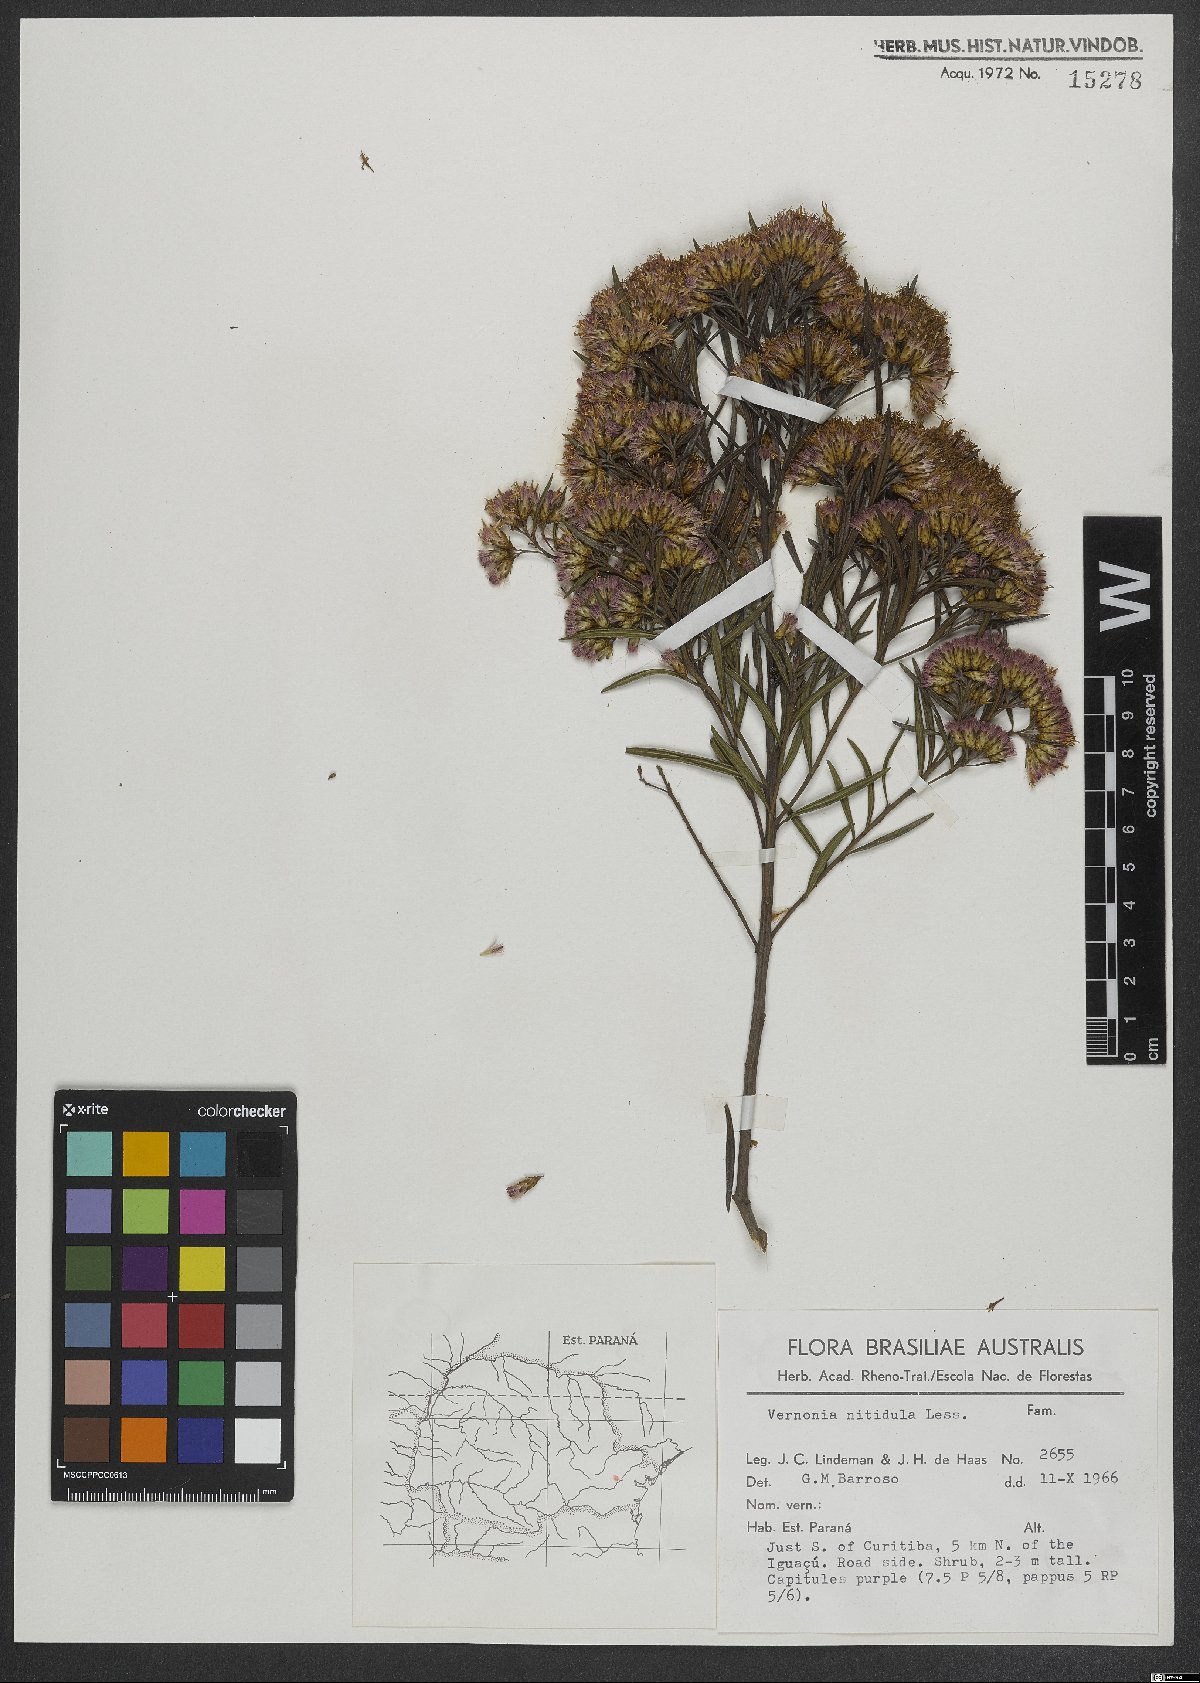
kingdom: Plantae
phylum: Tracheophyta
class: Magnoliopsida
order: Asterales
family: Asteraceae
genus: Vernonanthura
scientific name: Vernonanthura montevidensis
